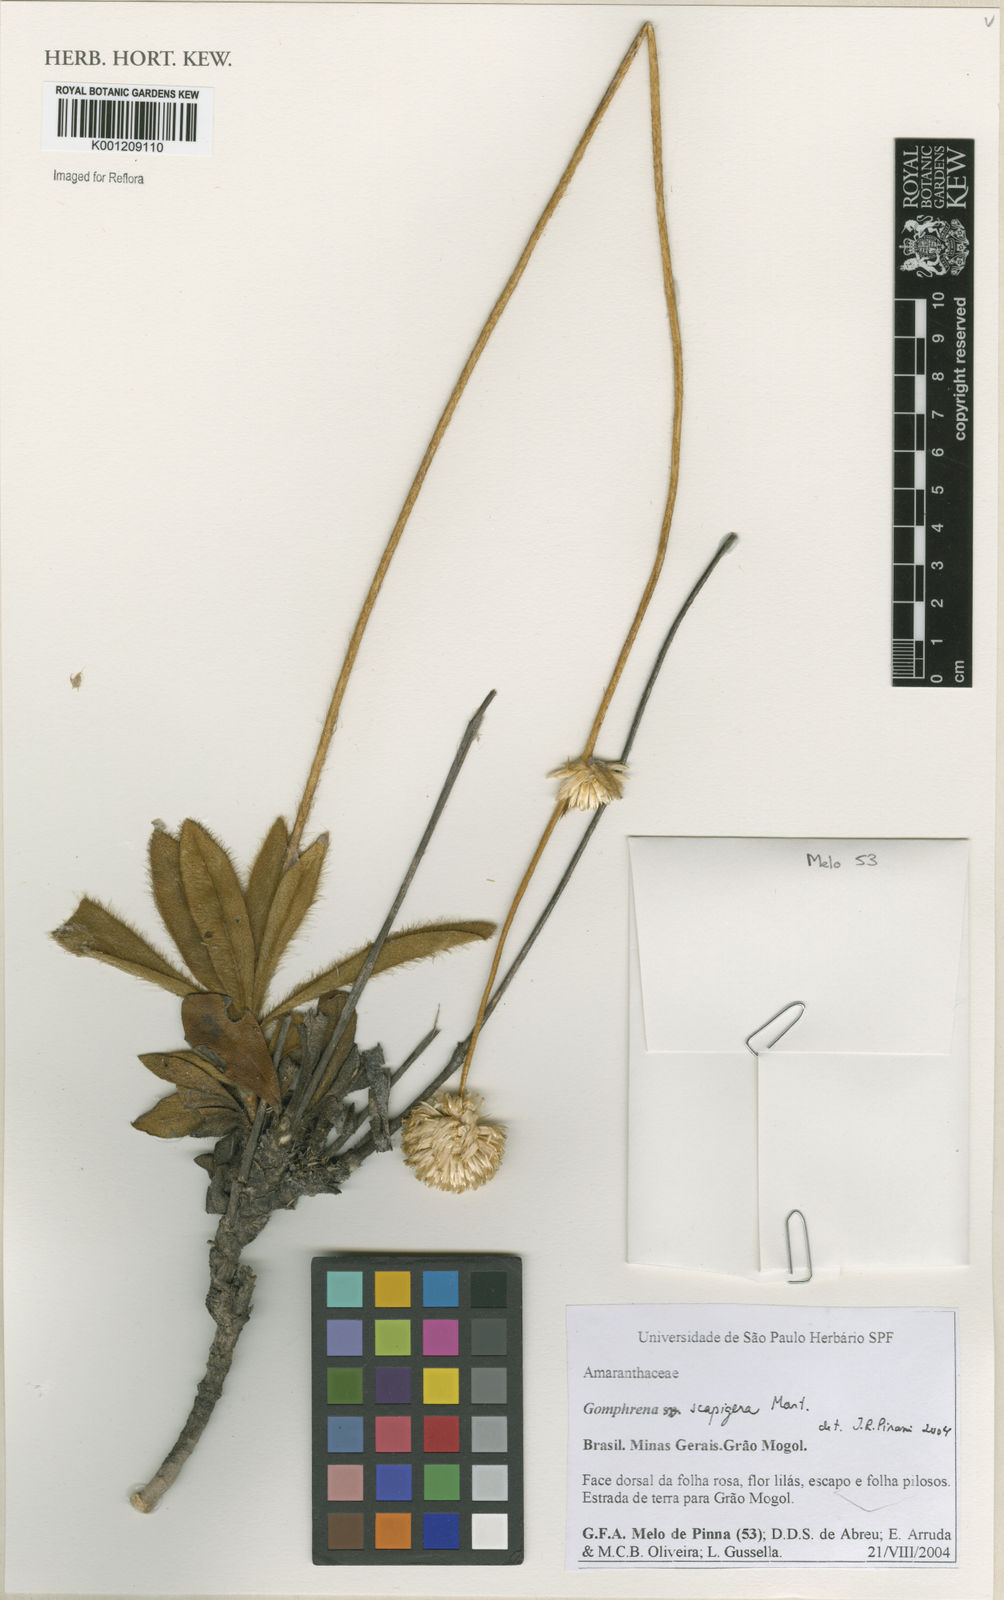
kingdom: Plantae
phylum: Tracheophyta
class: Magnoliopsida
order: Caryophyllales
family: Amaranthaceae
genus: Gomphrena
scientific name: Gomphrena scapigera
